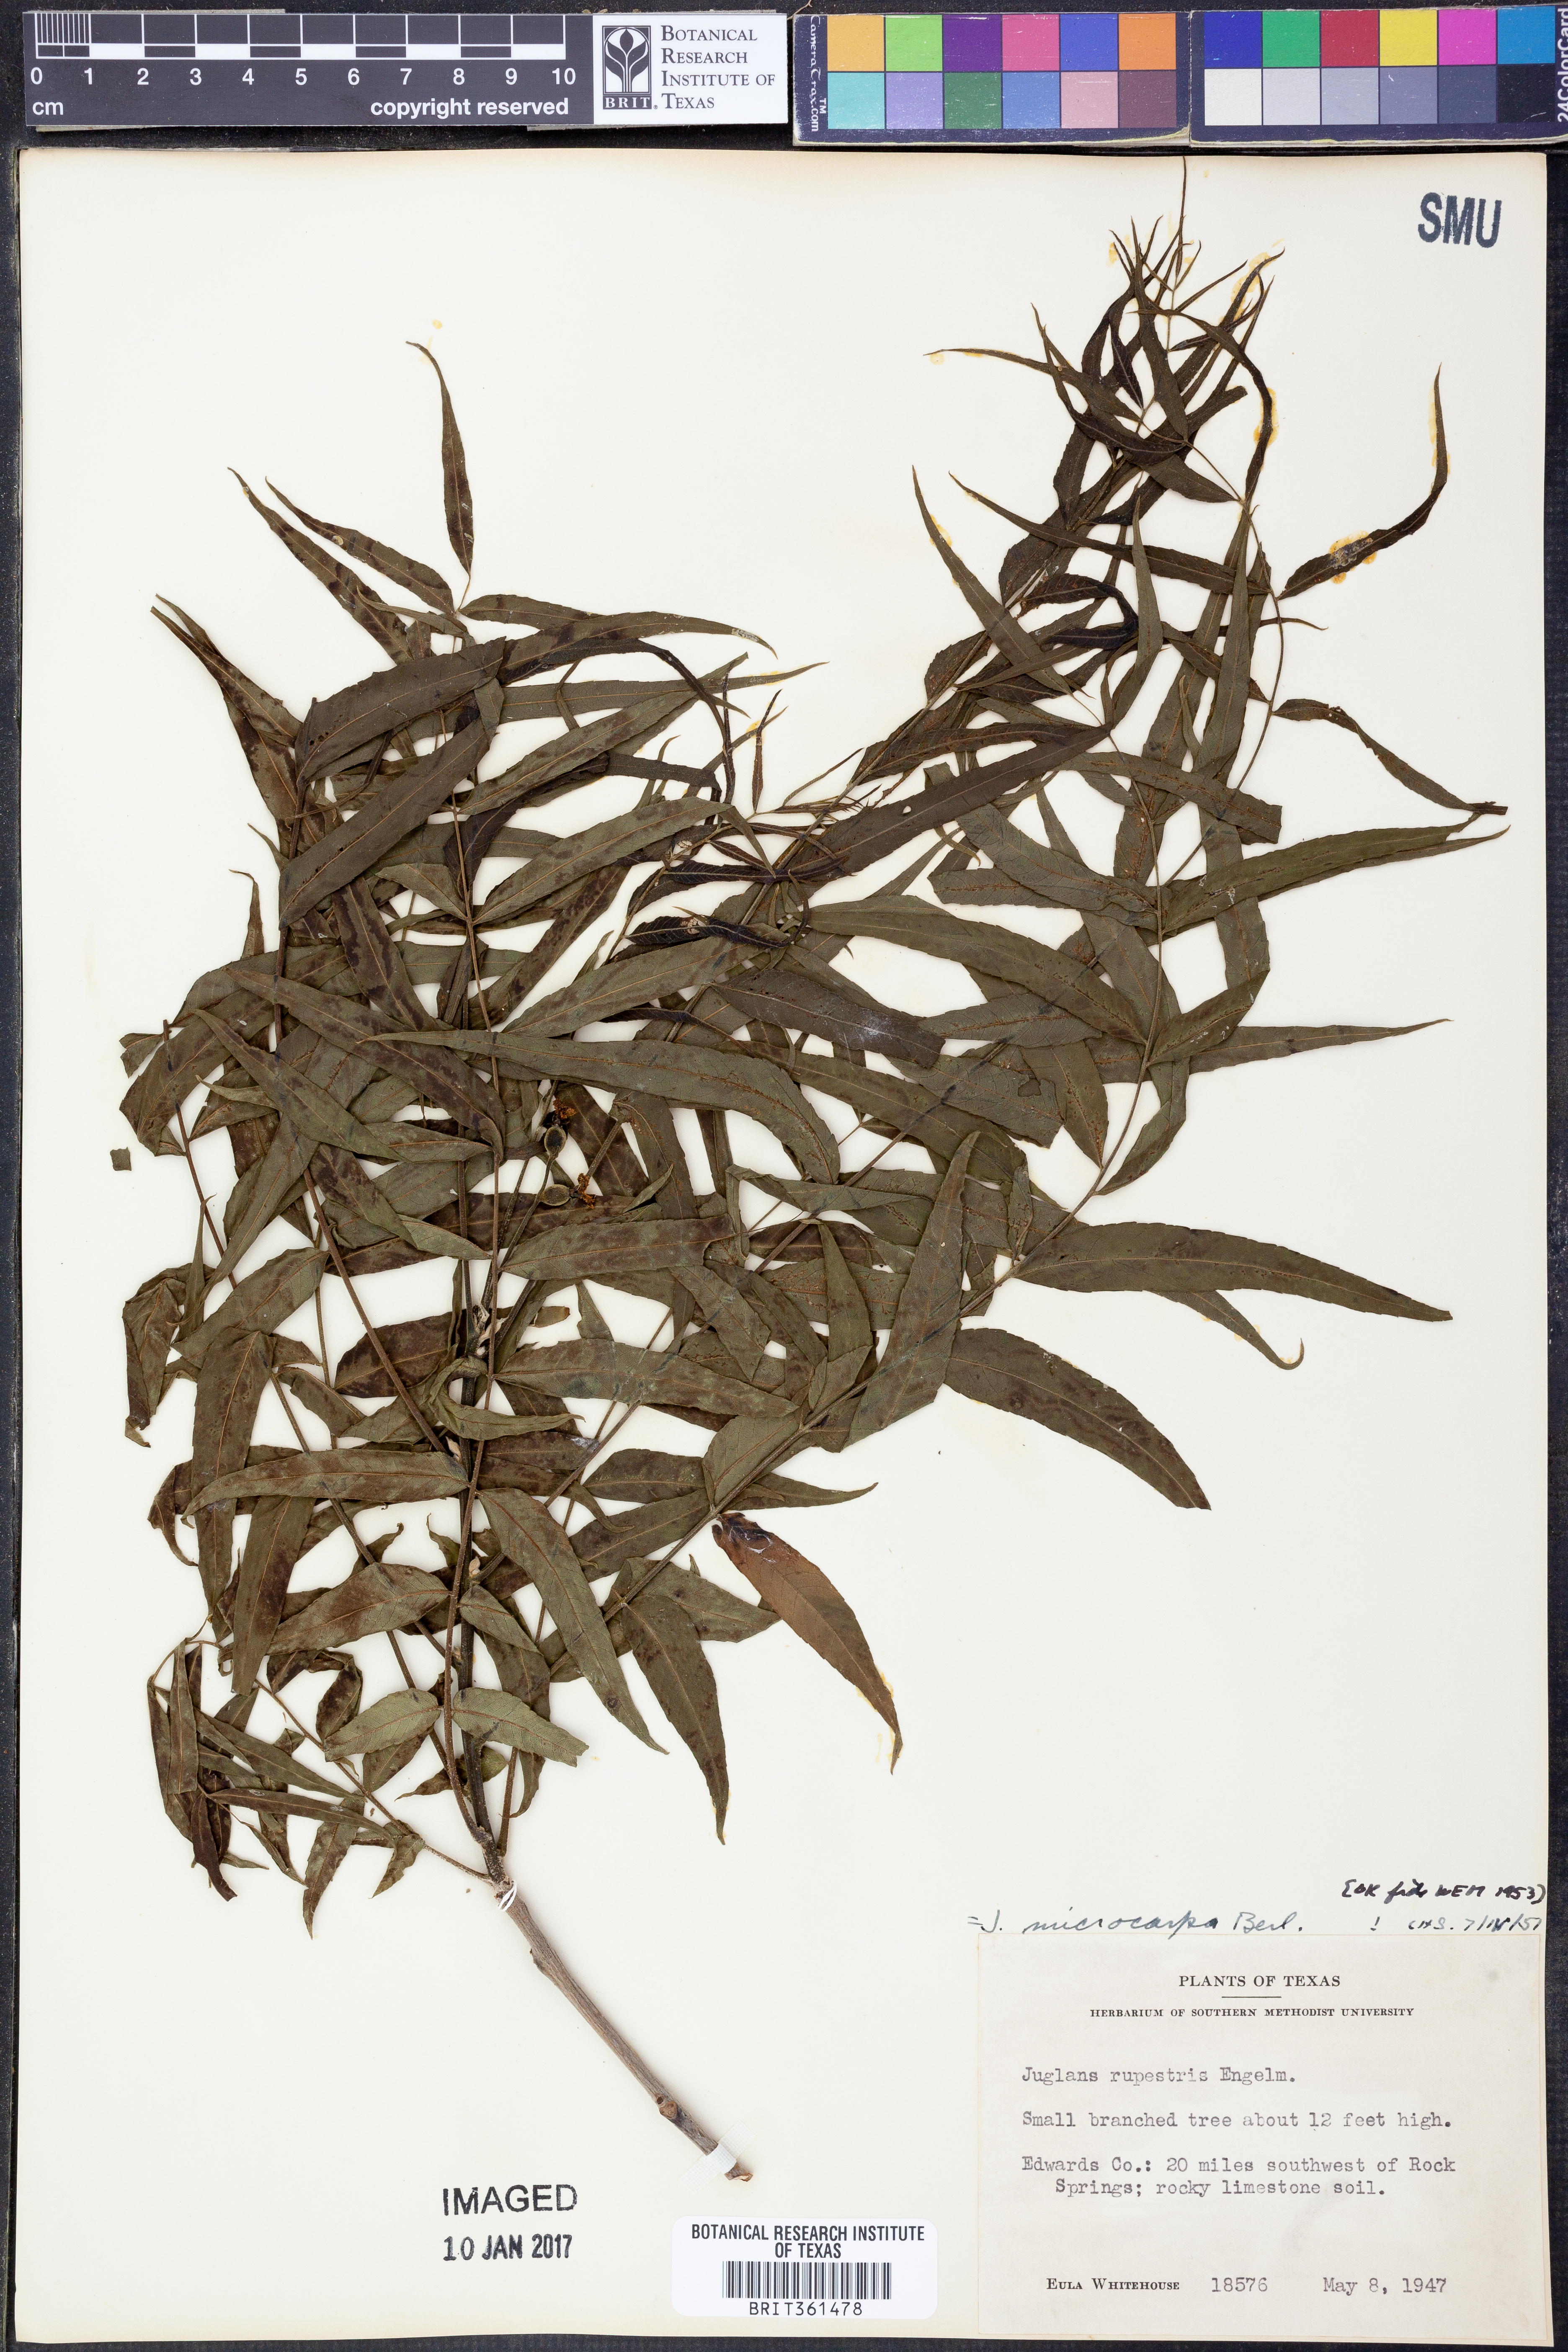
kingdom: Plantae
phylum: Tracheophyta
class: Magnoliopsida
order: Fagales
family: Juglandaceae
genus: Juglans
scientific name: Juglans microcarpa
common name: Texas walnut
